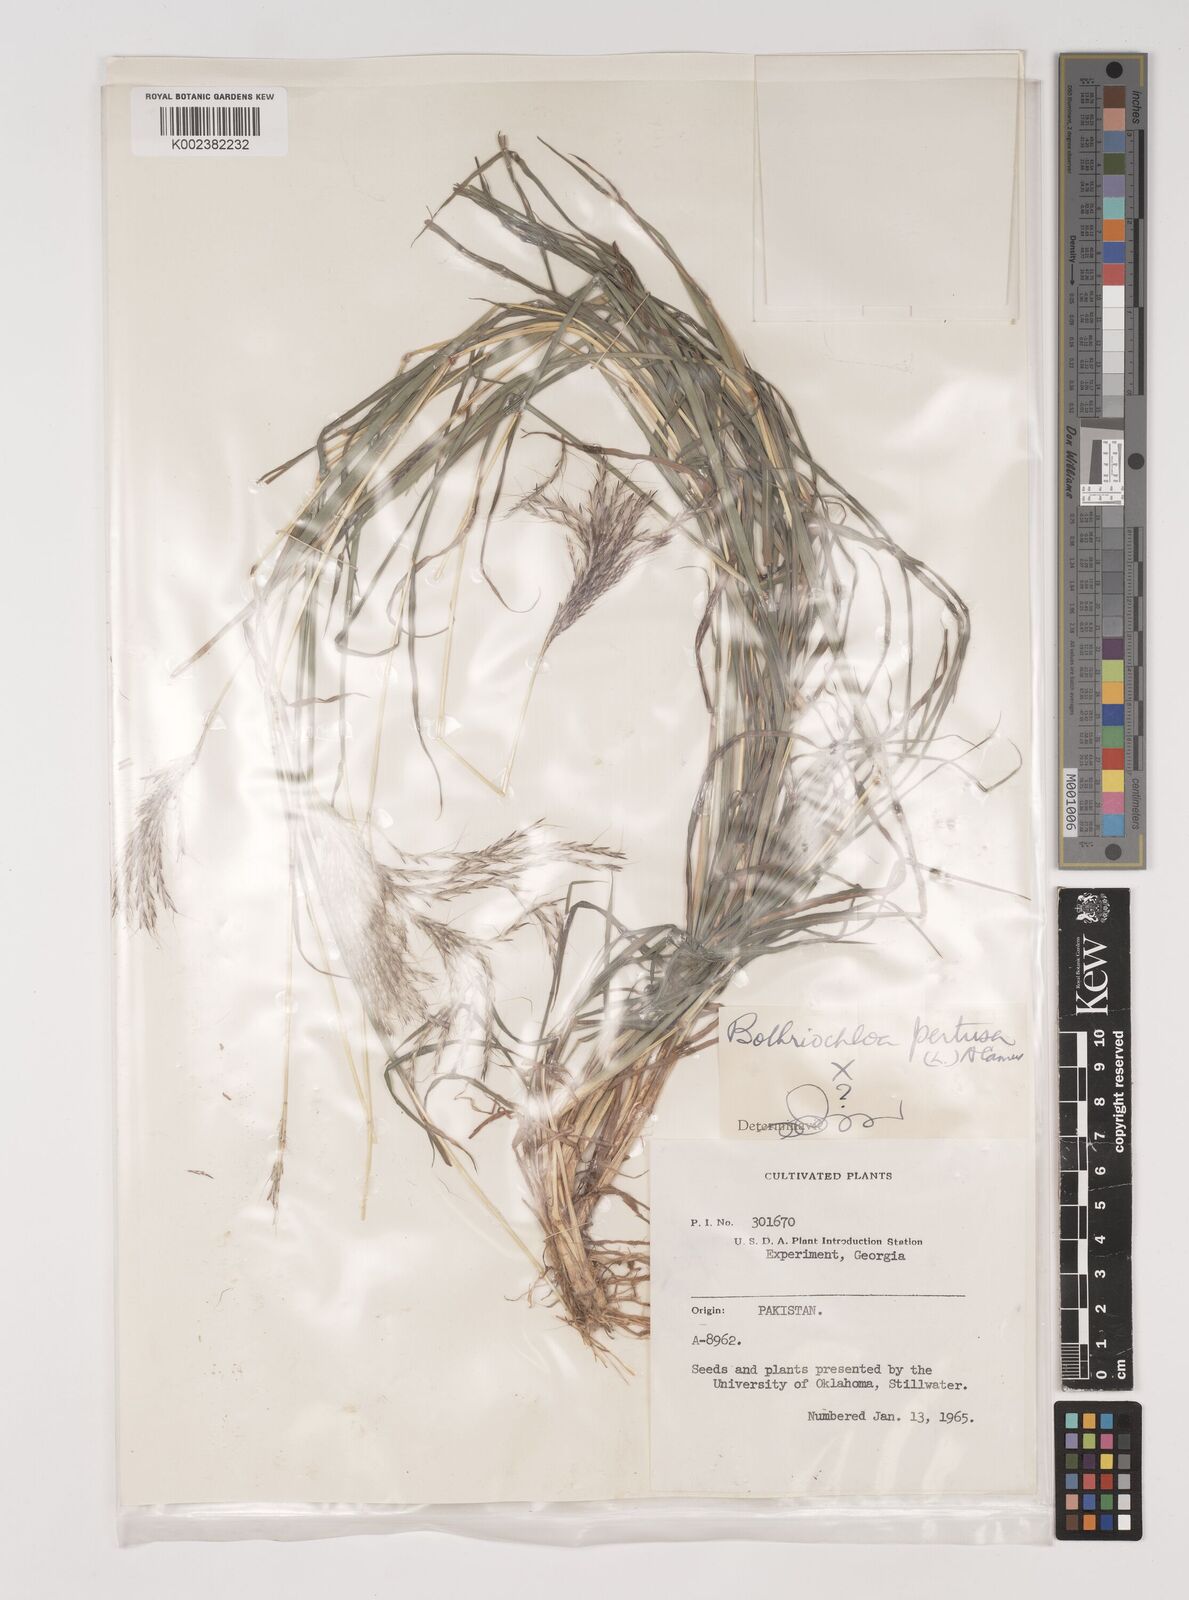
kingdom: Plantae
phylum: Tracheophyta
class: Liliopsida
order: Poales
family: Poaceae
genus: Bothriochloa
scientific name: Bothriochloa
